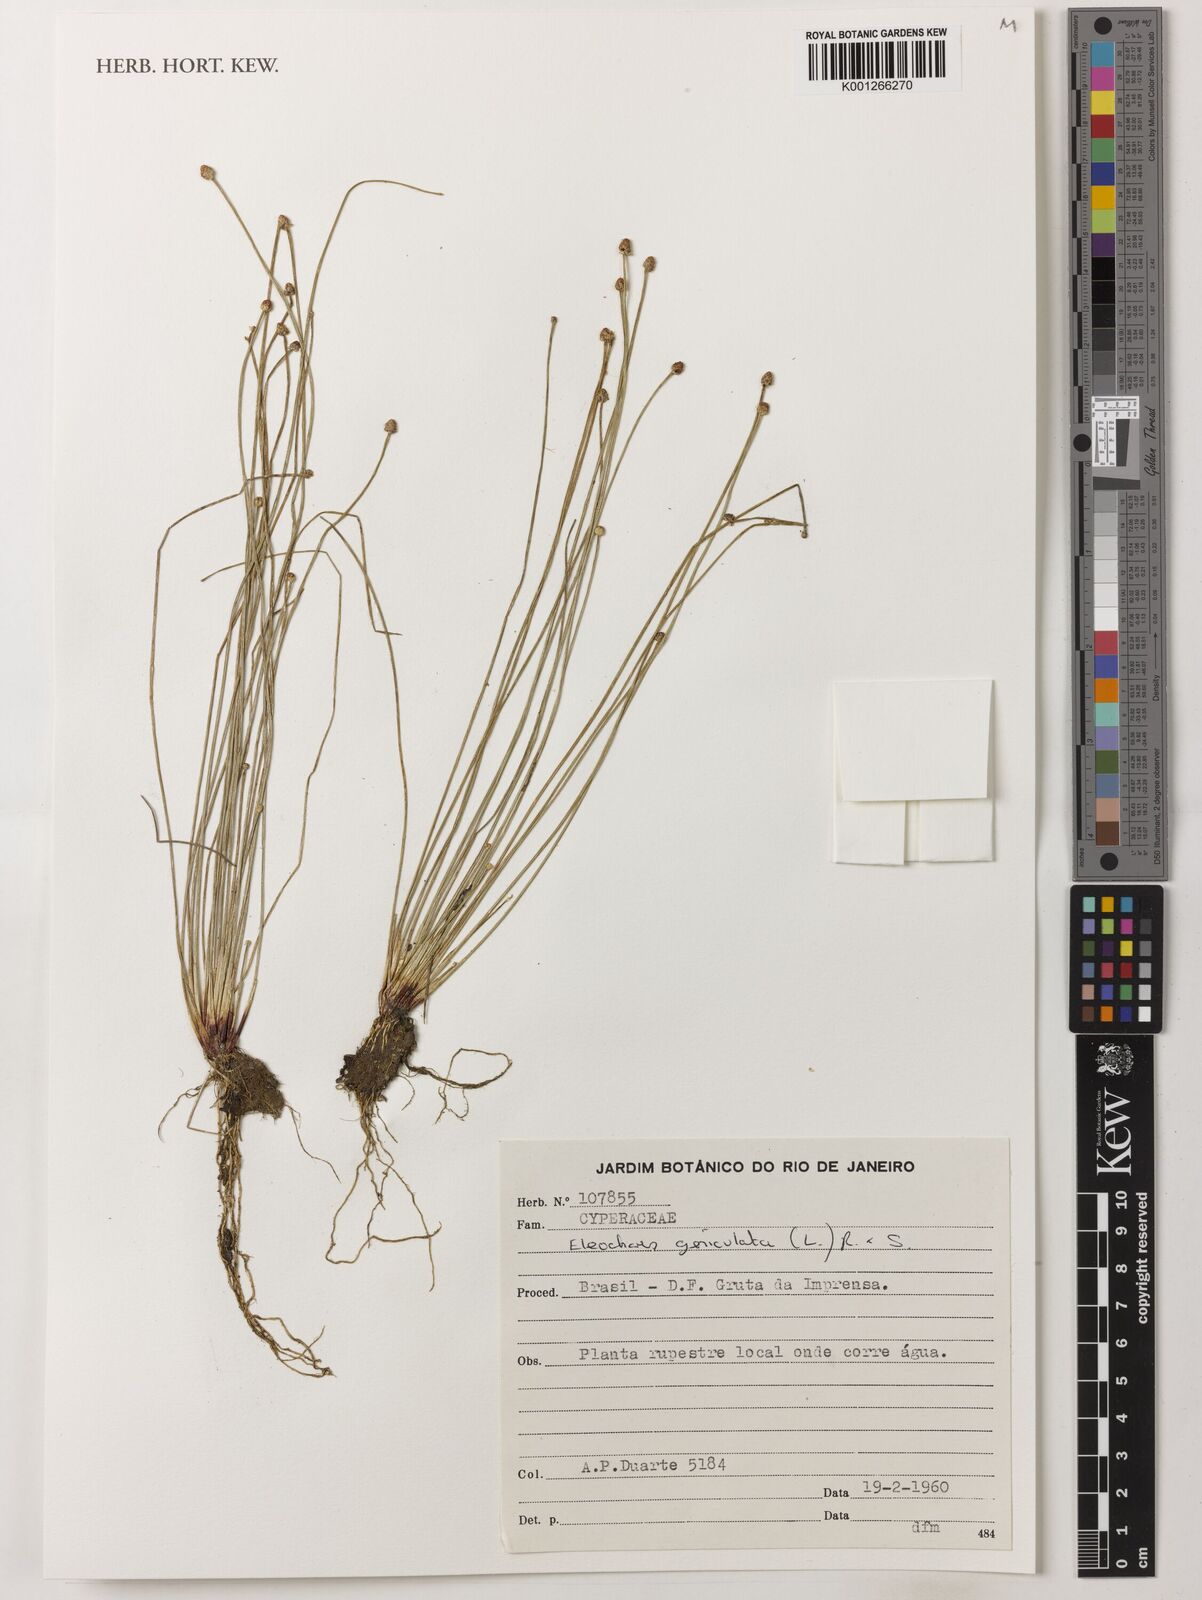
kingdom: Plantae
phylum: Tracheophyta
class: Liliopsida
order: Poales
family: Cyperaceae
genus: Eleocharis
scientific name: Eleocharis geniculata
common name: Canada spikesedge
